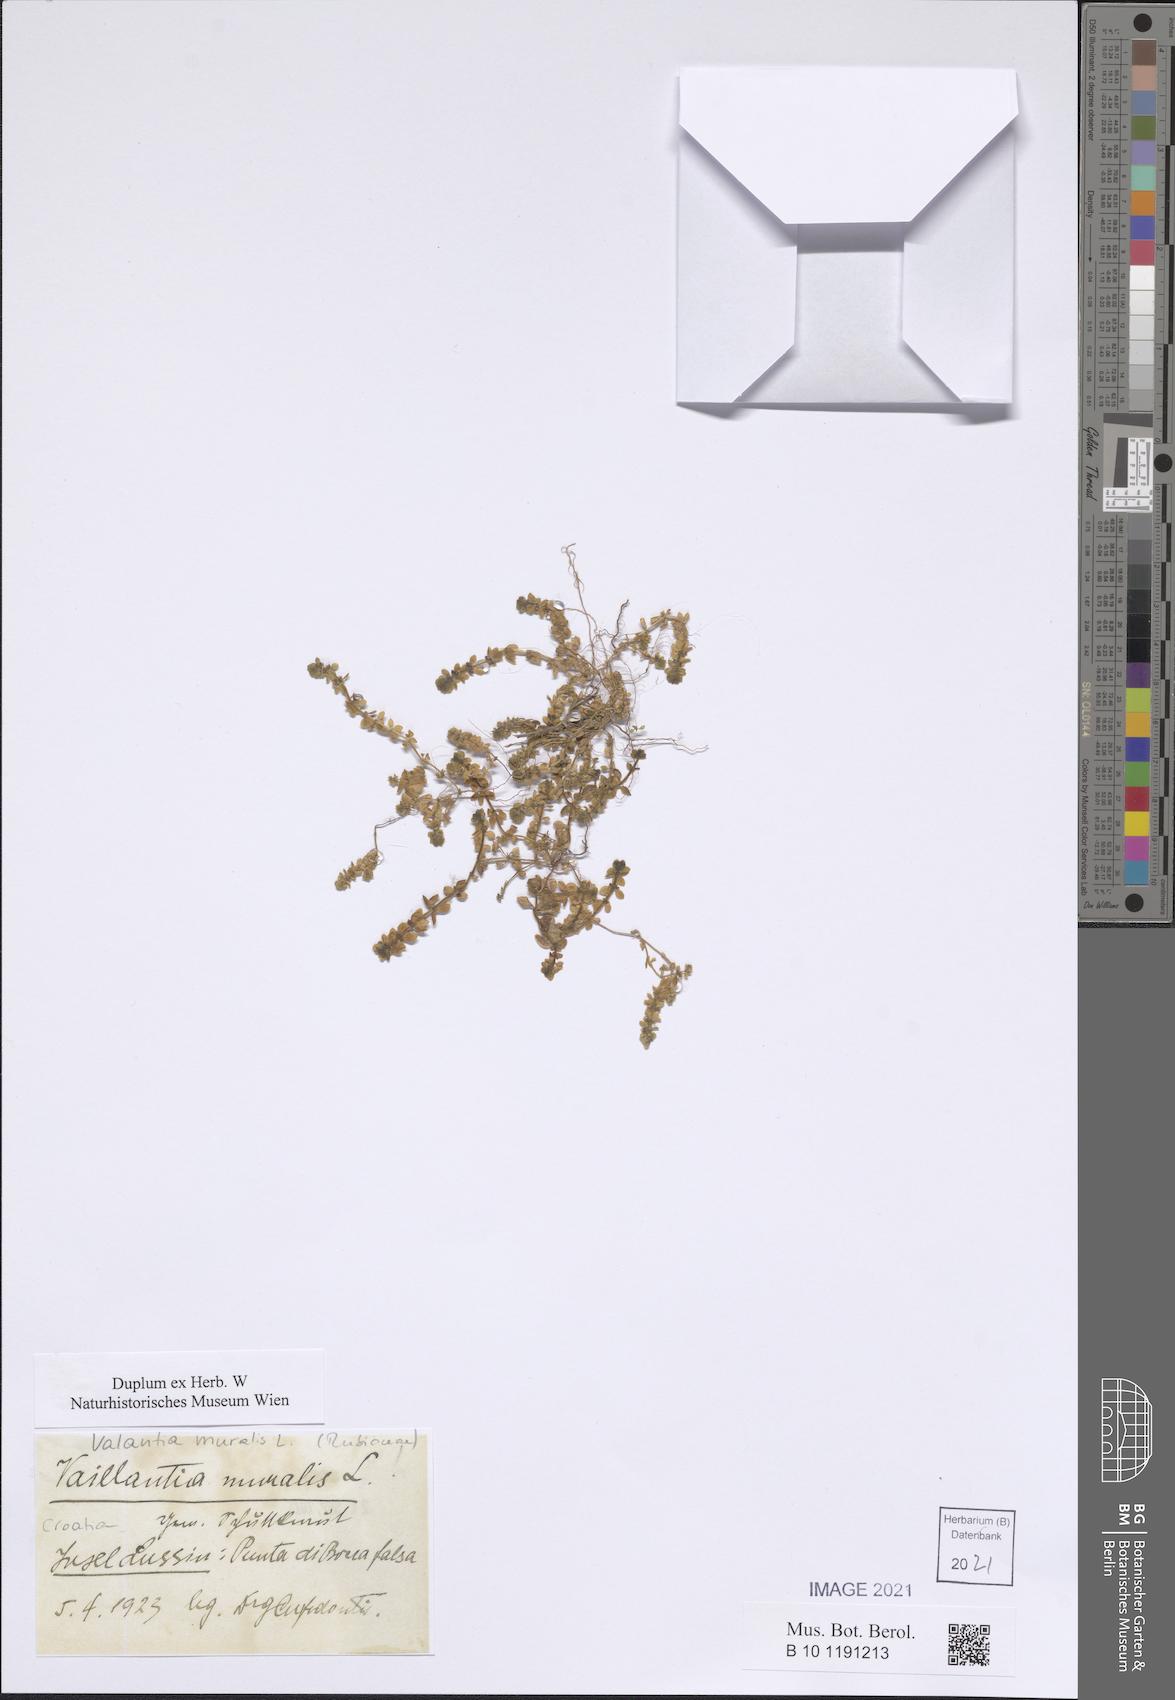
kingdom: Plantae
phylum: Tracheophyta
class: Magnoliopsida
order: Gentianales
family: Rubiaceae
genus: Valantia
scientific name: Valantia muralis
